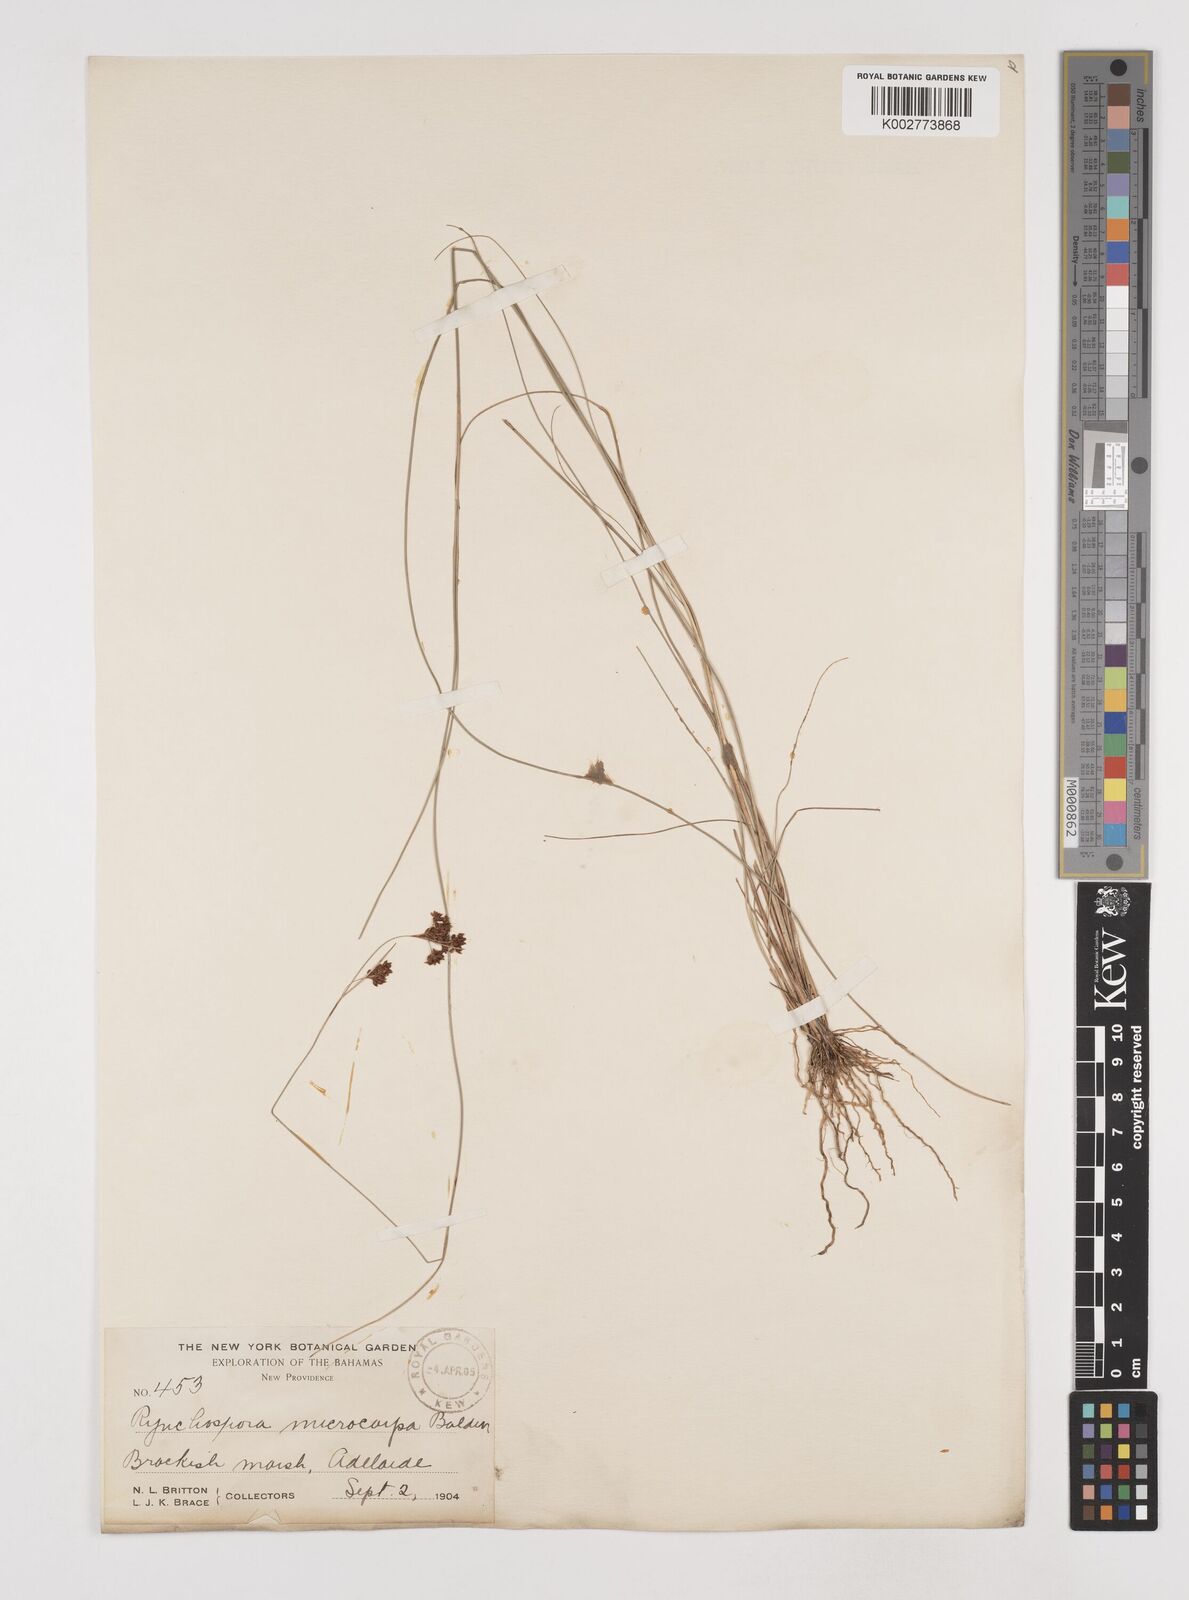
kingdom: Plantae
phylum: Tracheophyta
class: Liliopsida
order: Poales
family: Cyperaceae
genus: Rhynchospora
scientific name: Rhynchospora microcarpa
